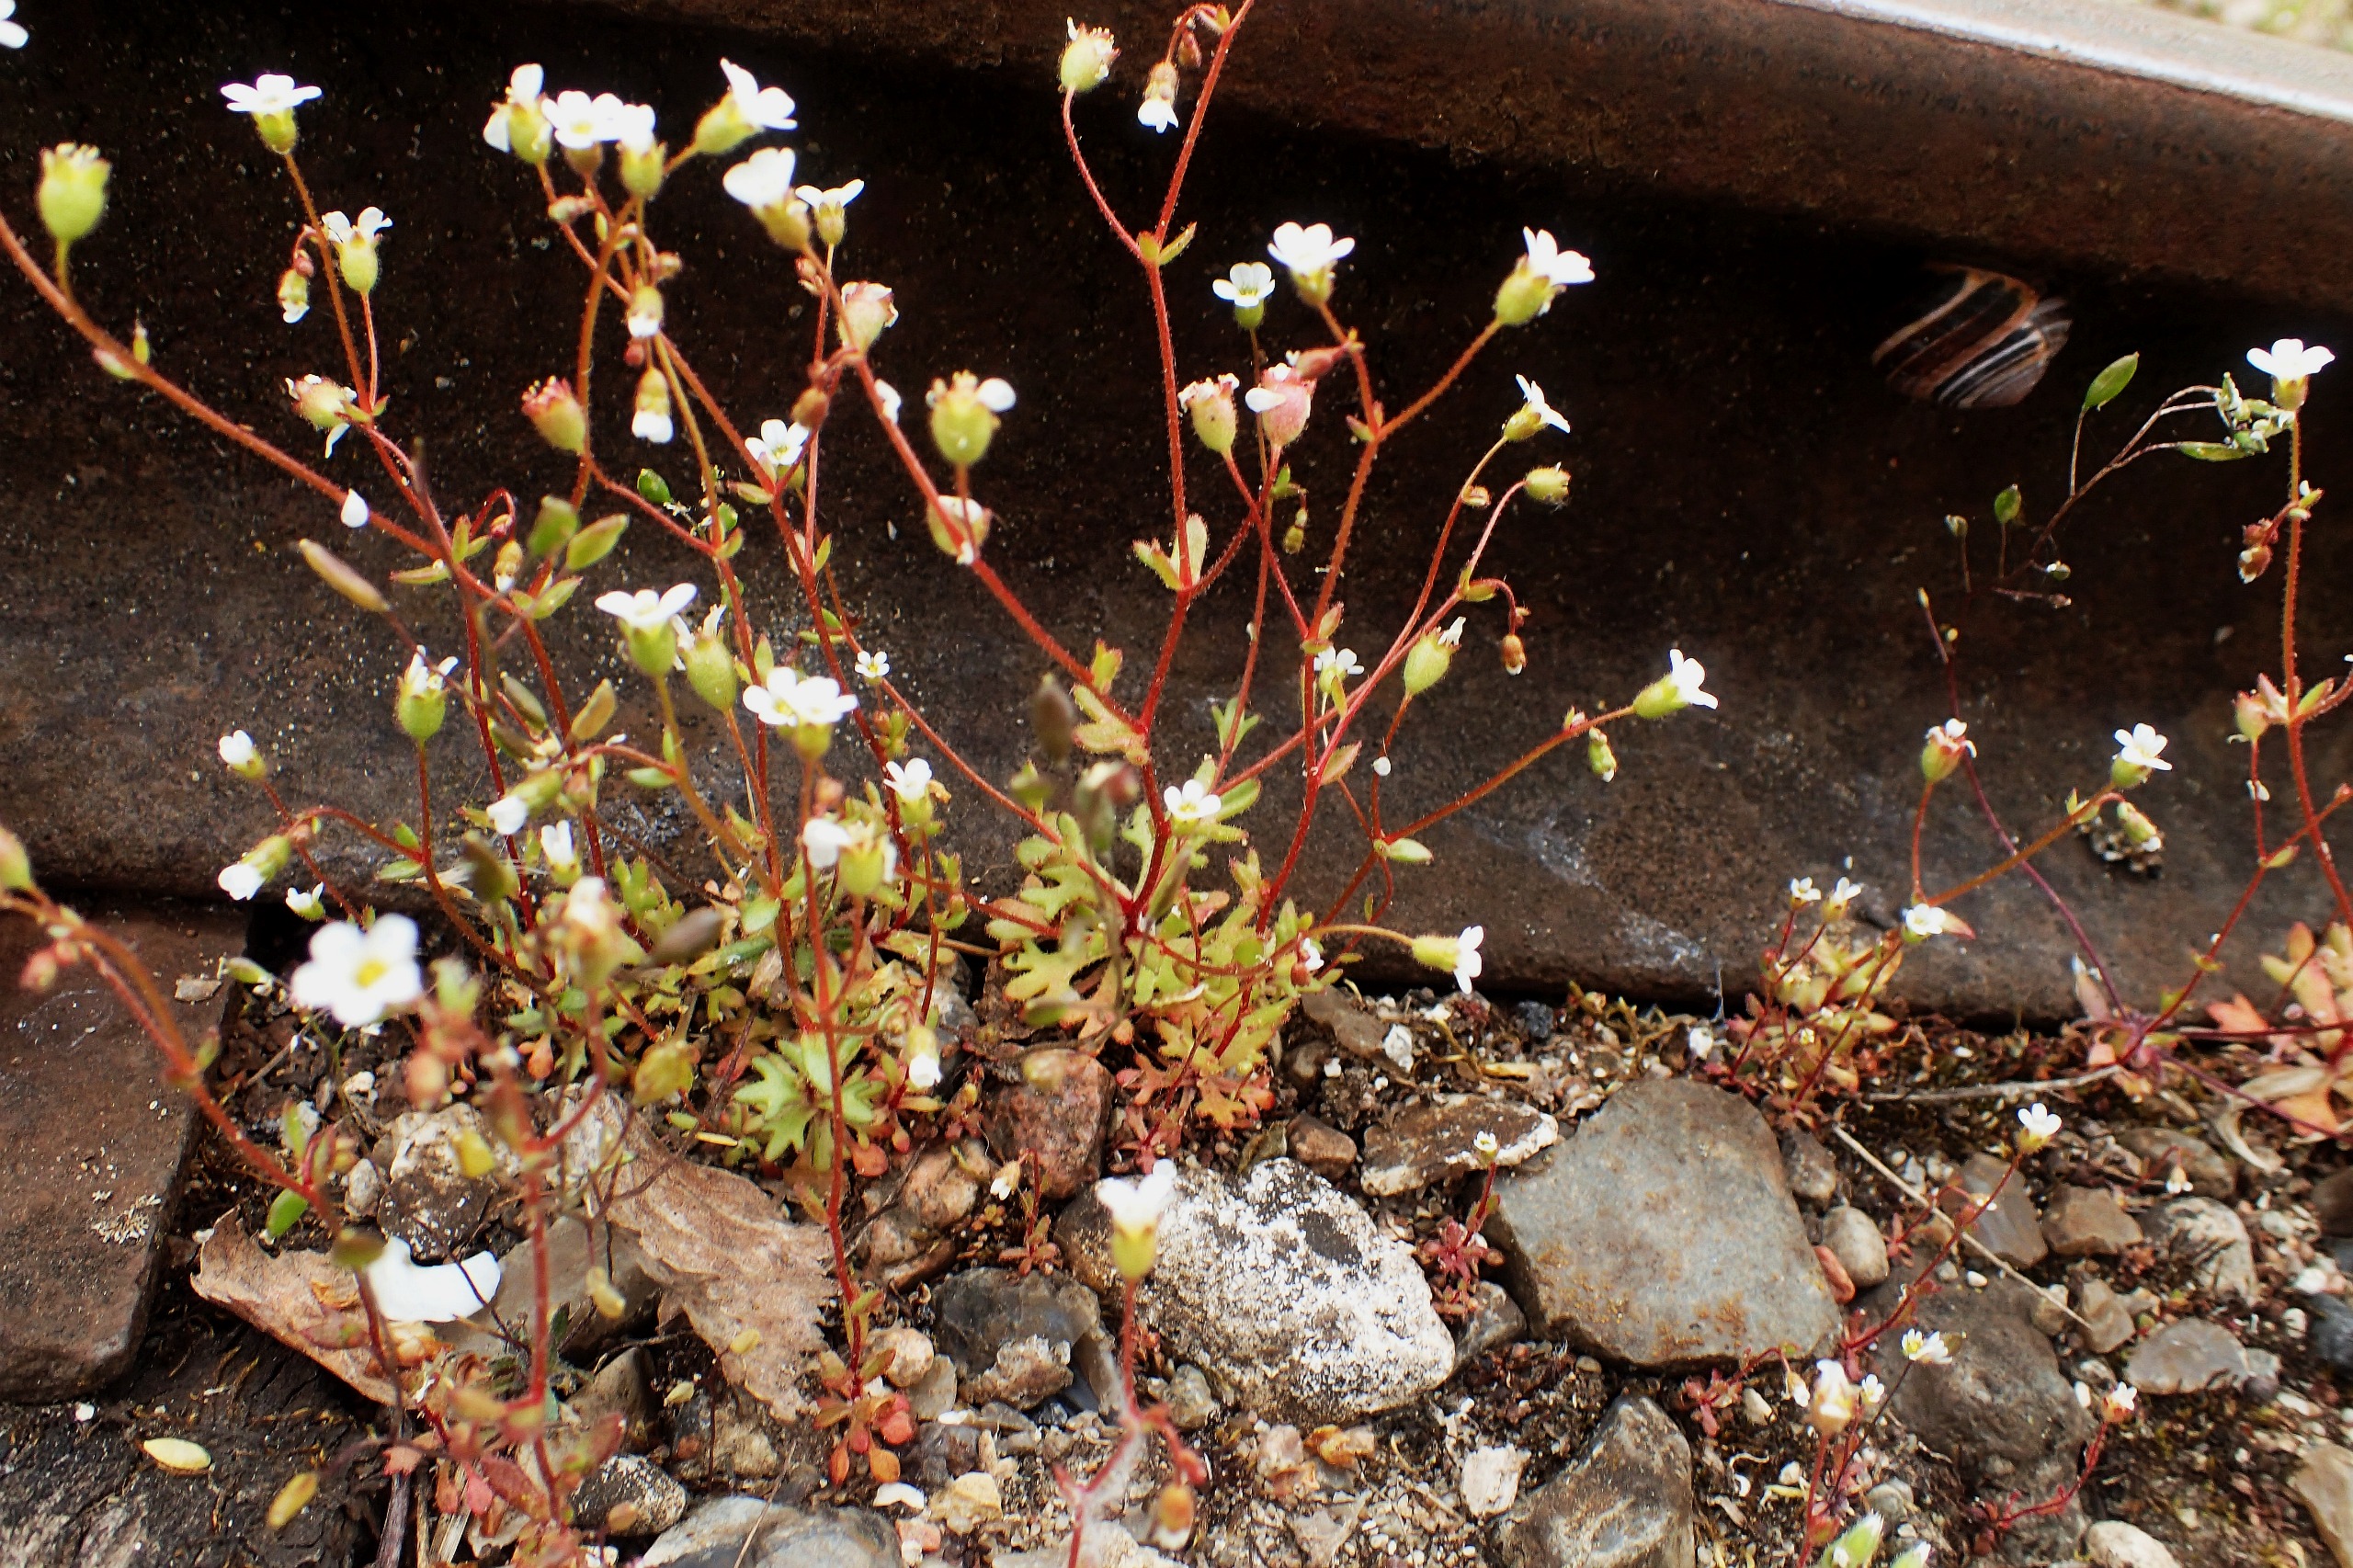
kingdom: Plantae
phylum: Tracheophyta
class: Magnoliopsida
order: Saxifragales
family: Saxifragaceae
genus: Saxifraga
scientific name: Saxifraga tridactylites
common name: Trekløft-stenbræk
